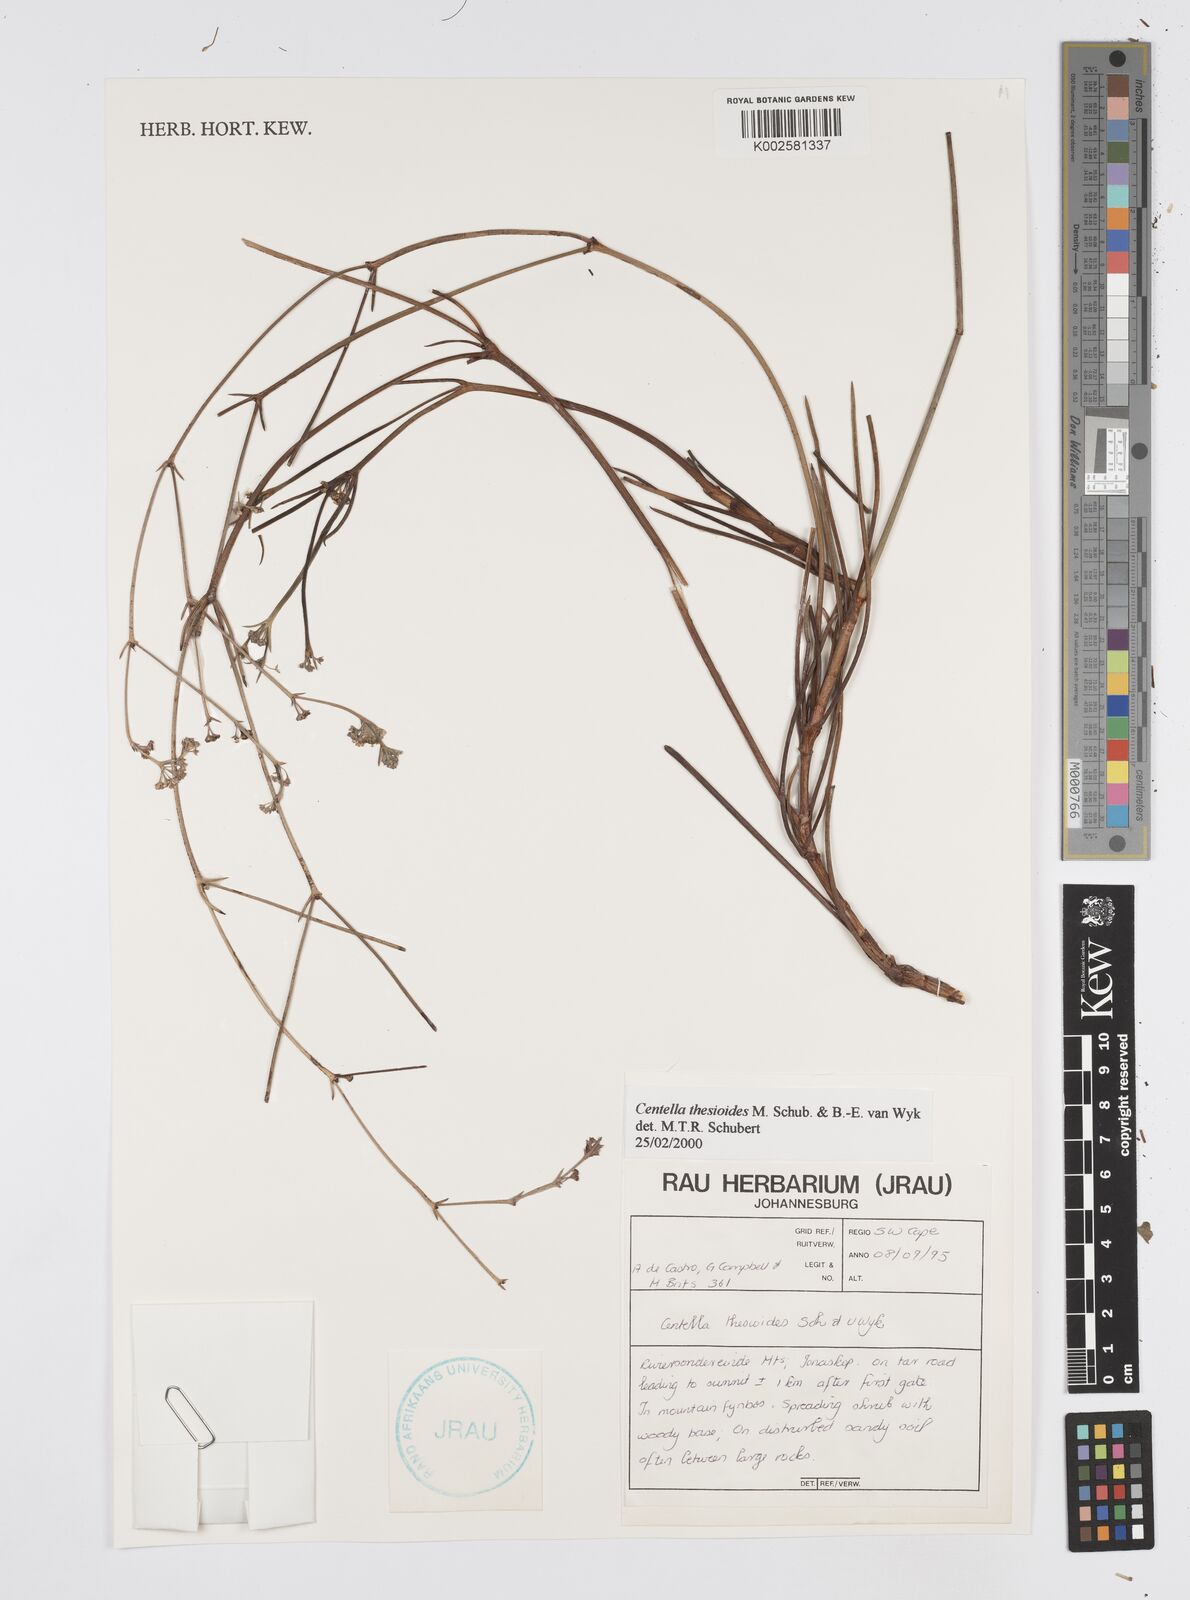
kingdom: Plantae
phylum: Tracheophyta
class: Magnoliopsida
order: Apiales
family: Apiaceae
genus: Centella
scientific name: Centella thesioides
